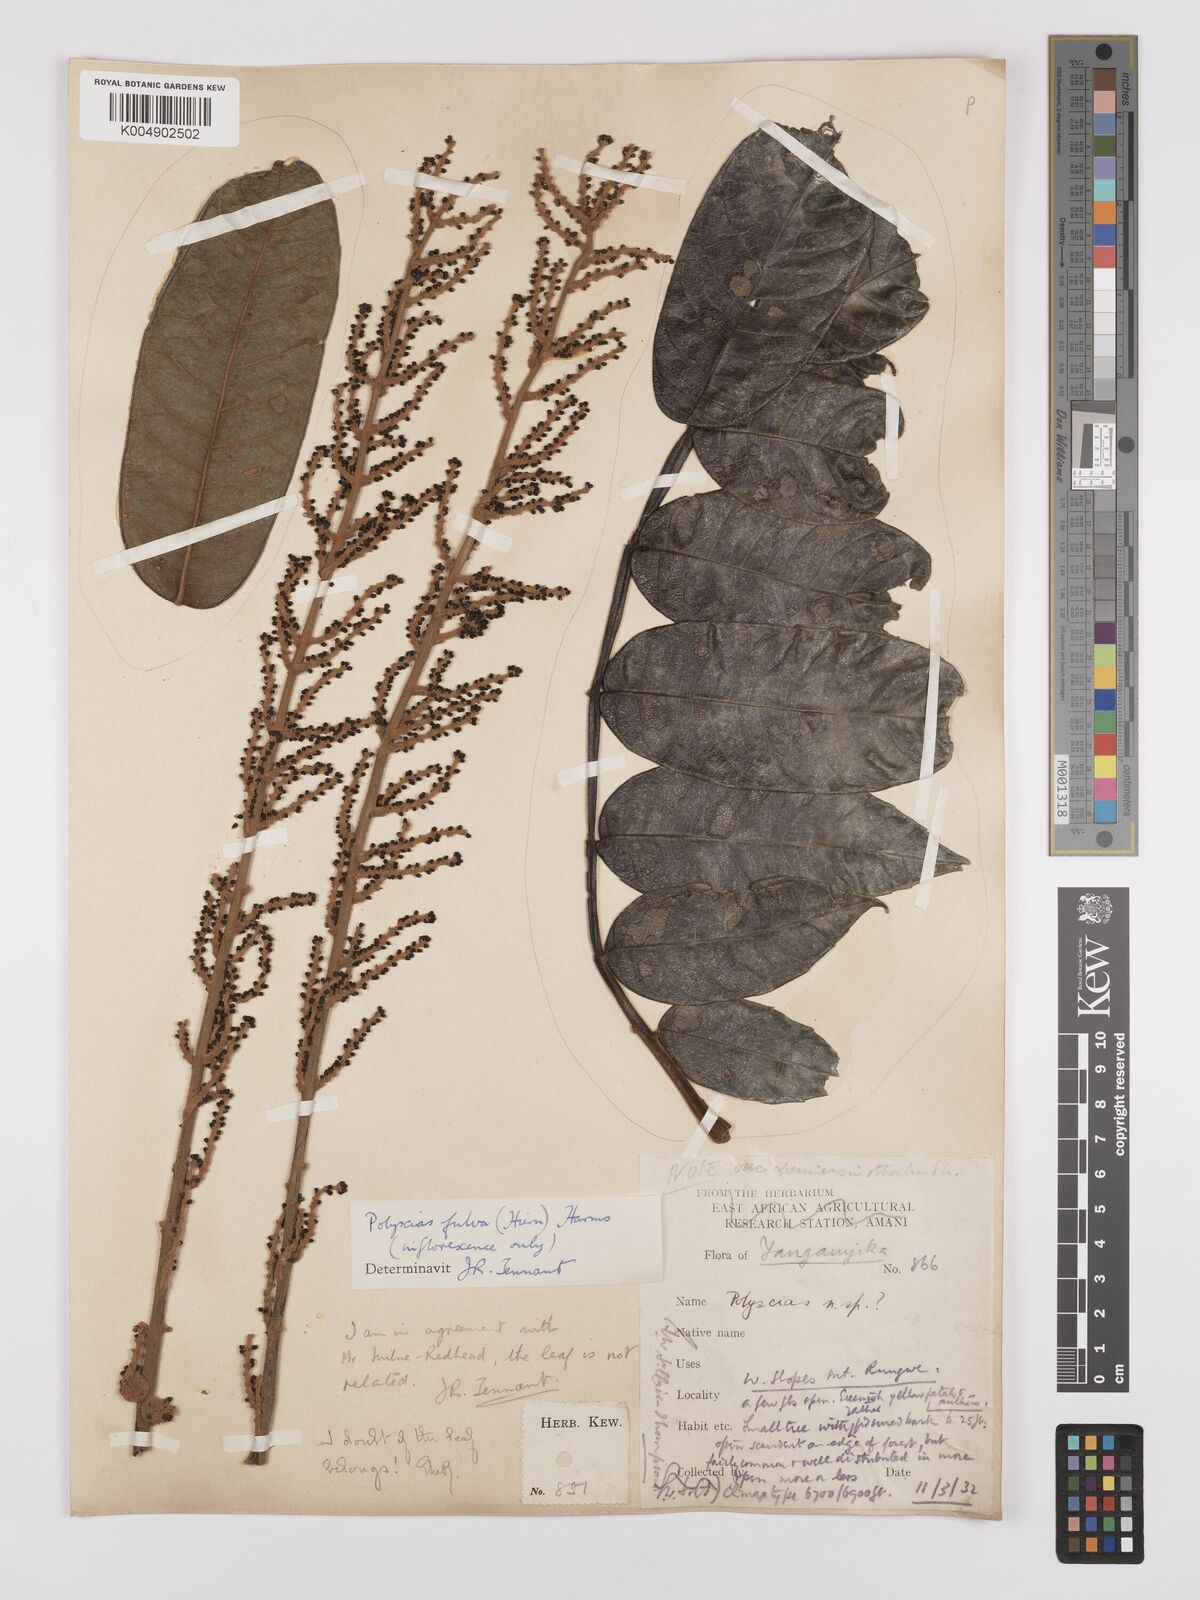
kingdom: Plantae
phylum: Tracheophyta
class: Magnoliopsida
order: Apiales
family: Araliaceae
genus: Polyscias
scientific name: Polyscias fulva
